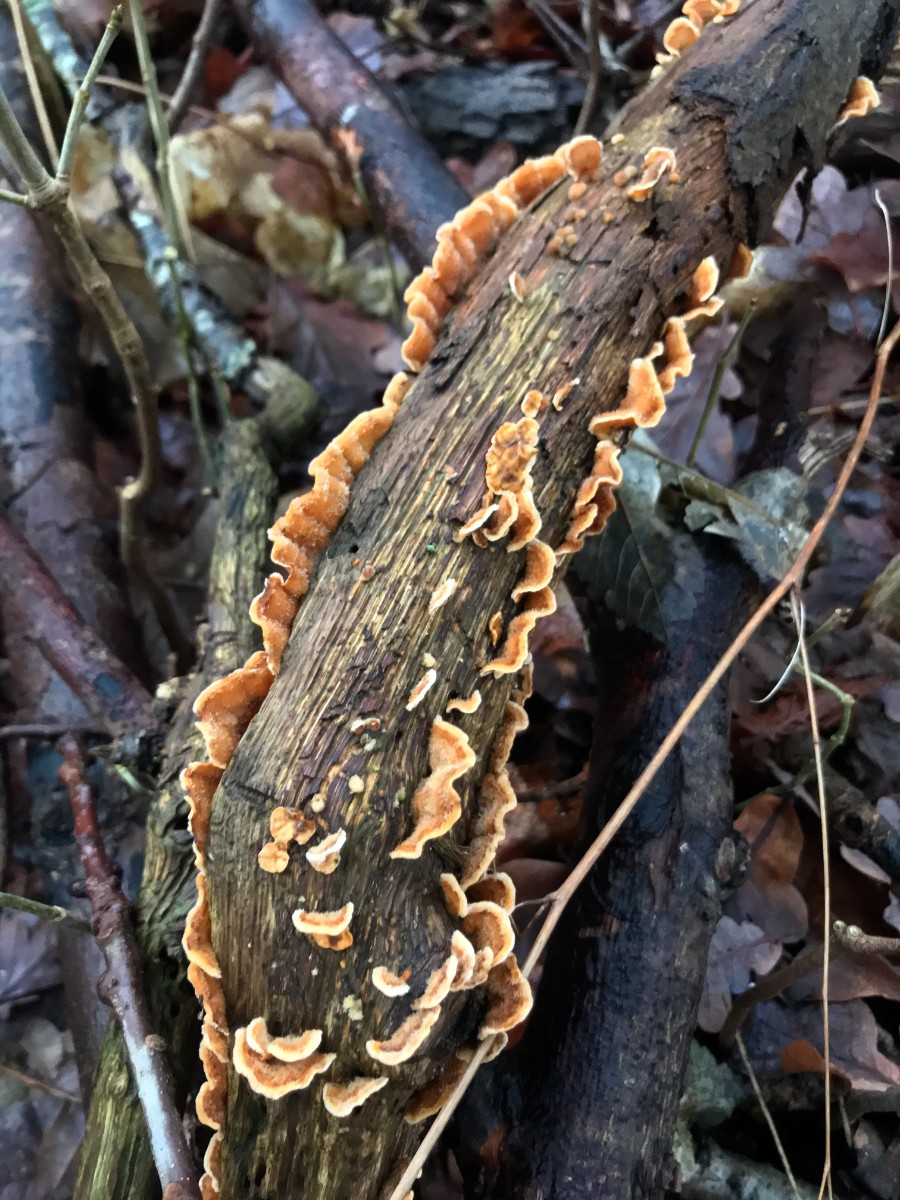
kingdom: Fungi
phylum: Basidiomycota
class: Agaricomycetes
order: Russulales
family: Stereaceae
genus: Stereum
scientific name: Stereum hirsutum
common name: håret lædersvamp
